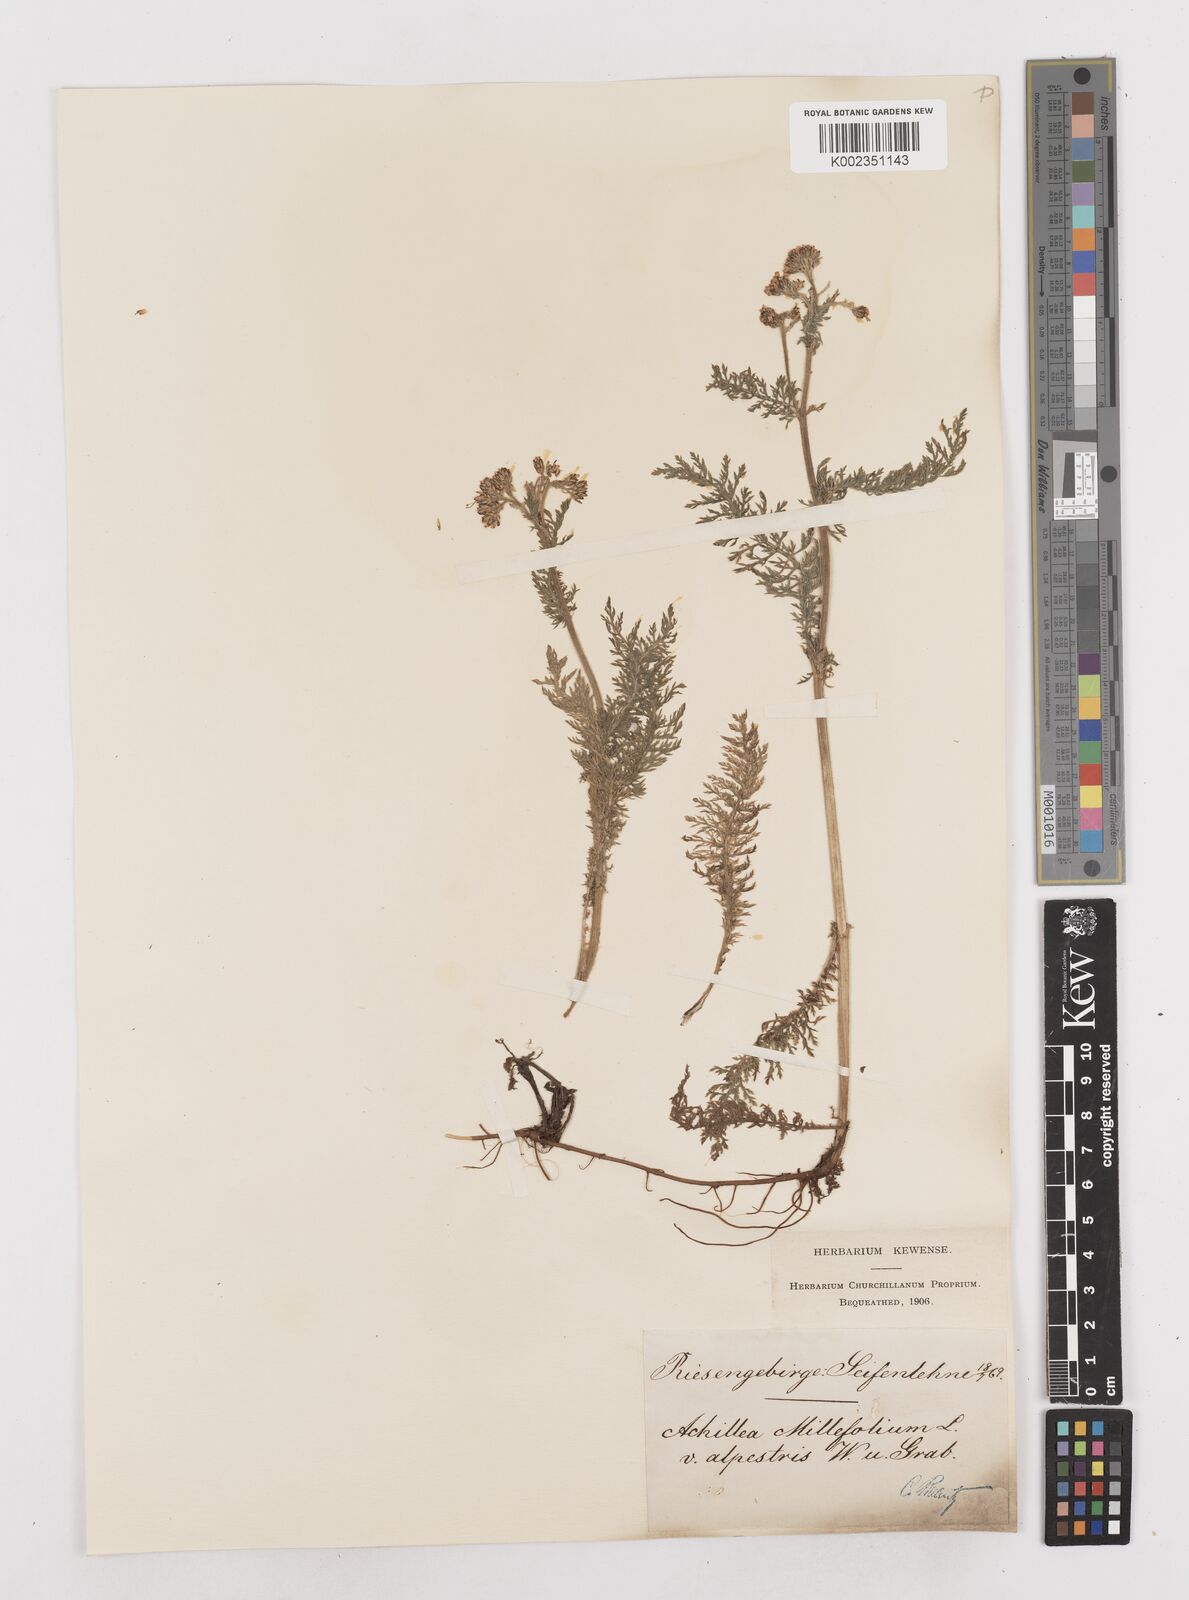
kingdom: Plantae
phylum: Tracheophyta
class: Magnoliopsida
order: Asterales
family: Asteraceae
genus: Achillea
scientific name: Achillea millefolium
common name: Yarrow
